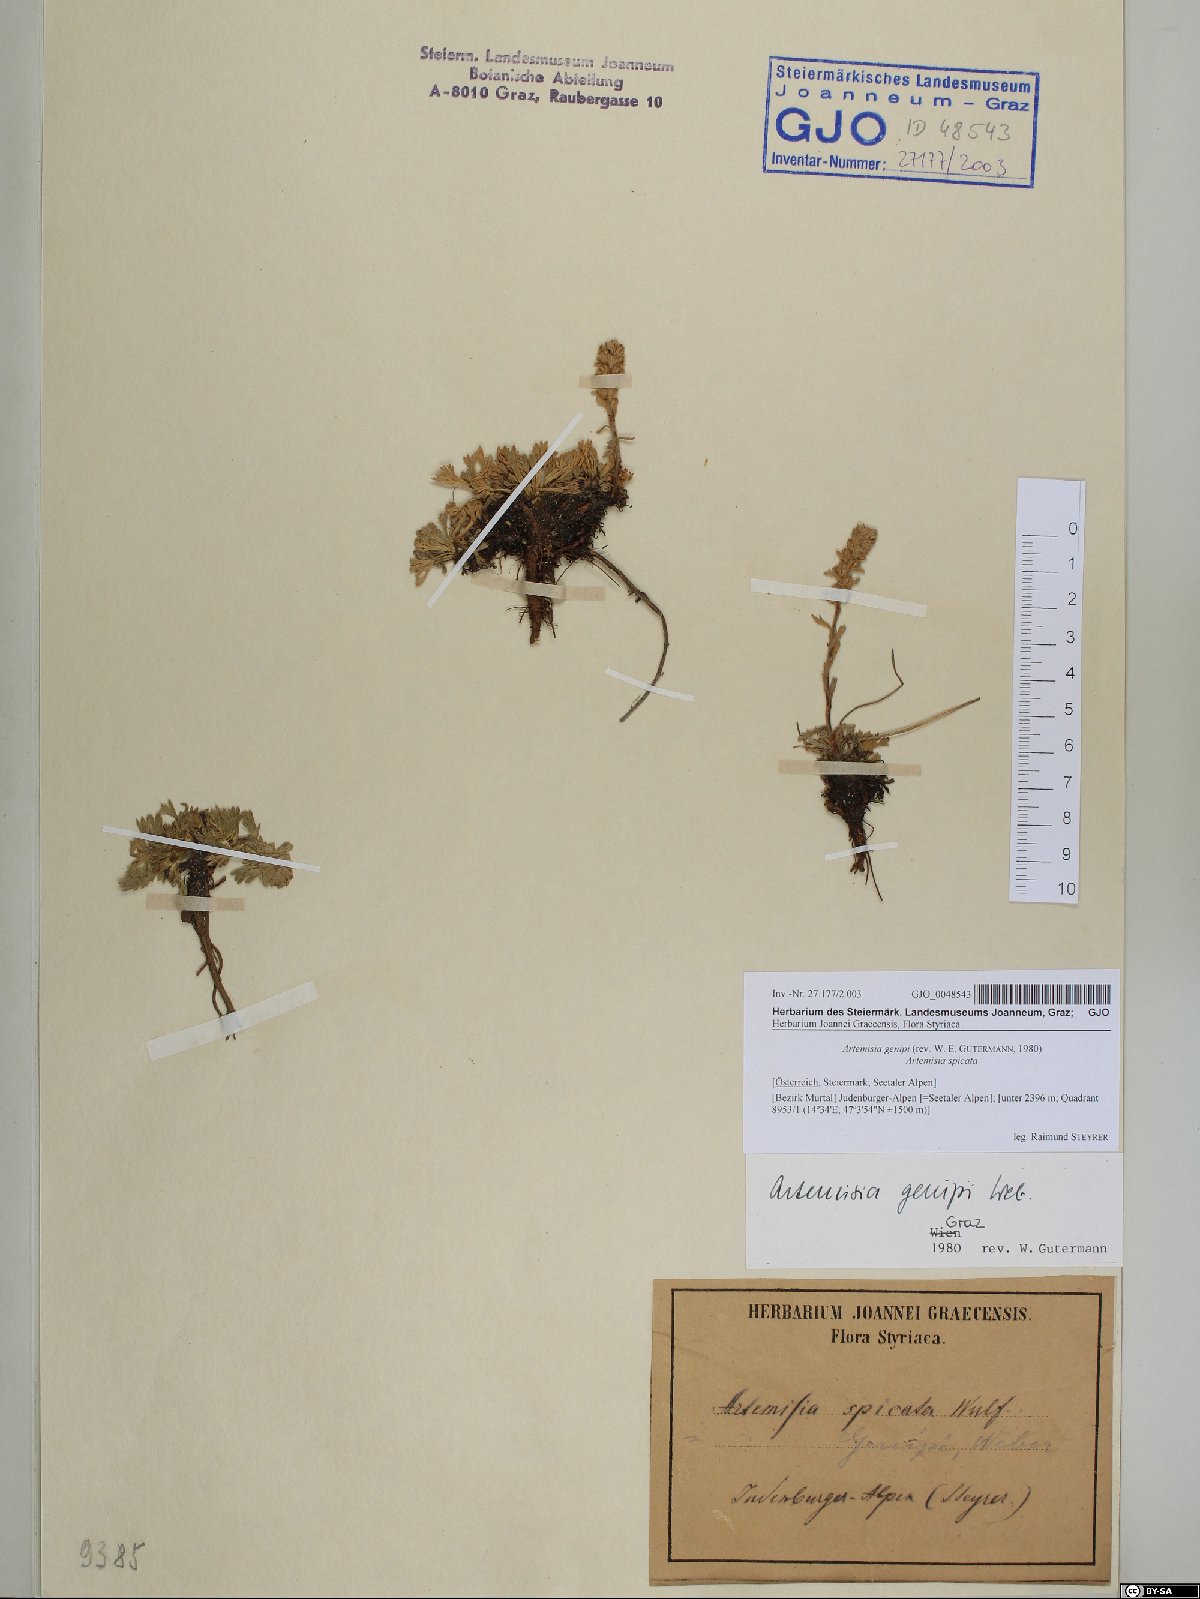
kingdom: Plantae
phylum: Tracheophyta
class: Magnoliopsida
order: Asterales
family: Asteraceae
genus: Artemisia
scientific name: Artemisia genipi
